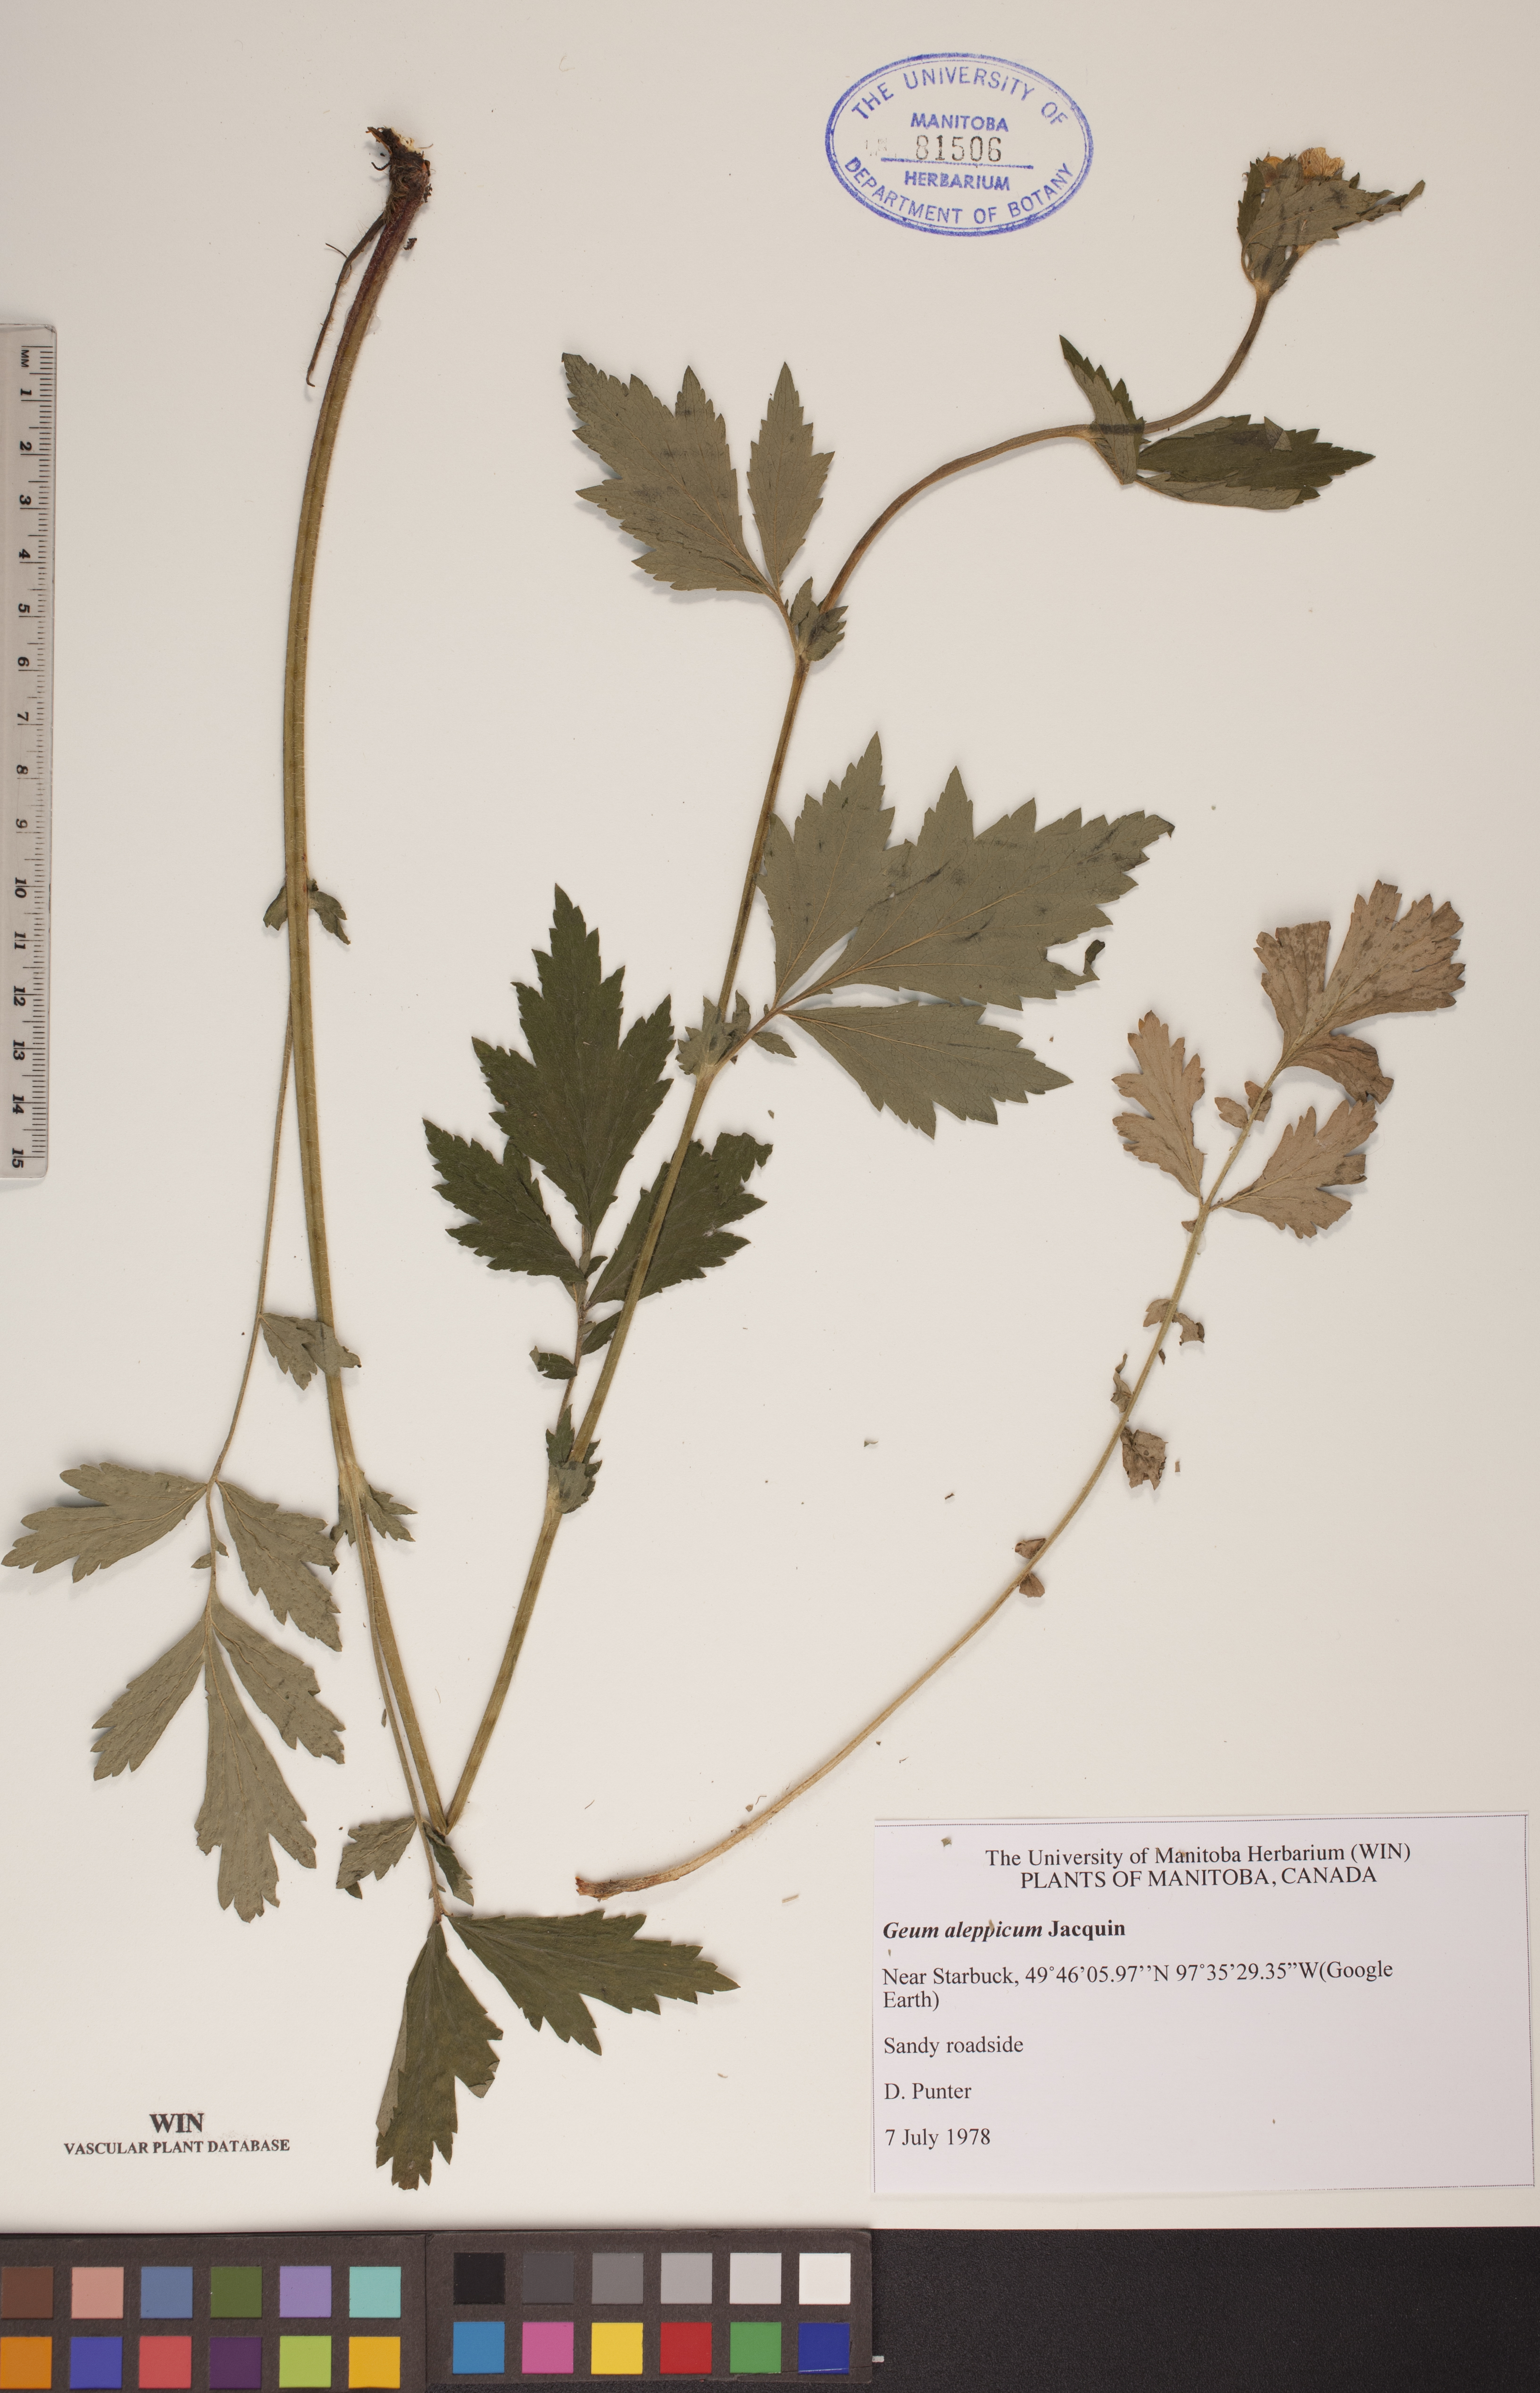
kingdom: Plantae
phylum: Tracheophyta
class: Magnoliopsida
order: Rosales
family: Rosaceae
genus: Geum
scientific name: Geum aleppicum
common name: Yellow avens
